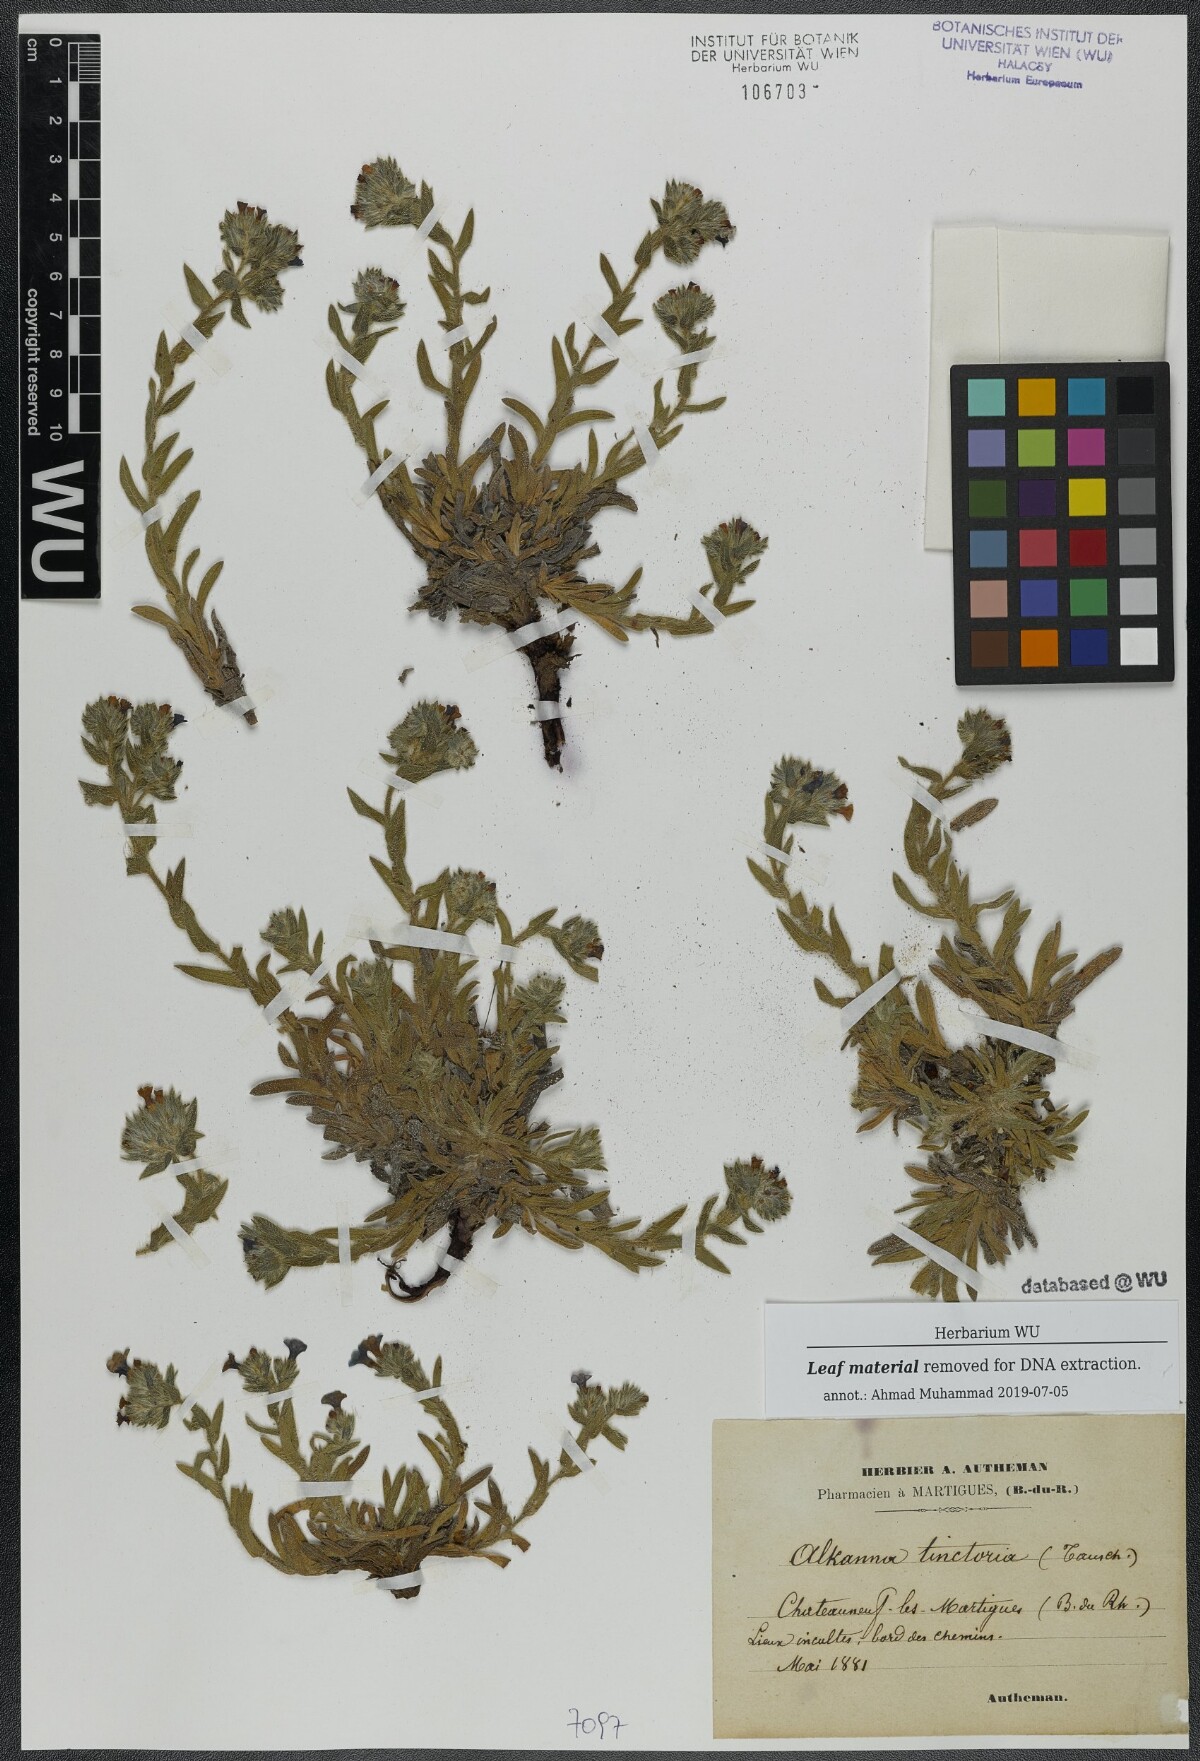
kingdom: Plantae
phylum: Tracheophyta
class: Magnoliopsida
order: Boraginales
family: Boraginaceae
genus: Alkanna
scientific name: Alkanna tinctoria
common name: Dyer's-alkanet
